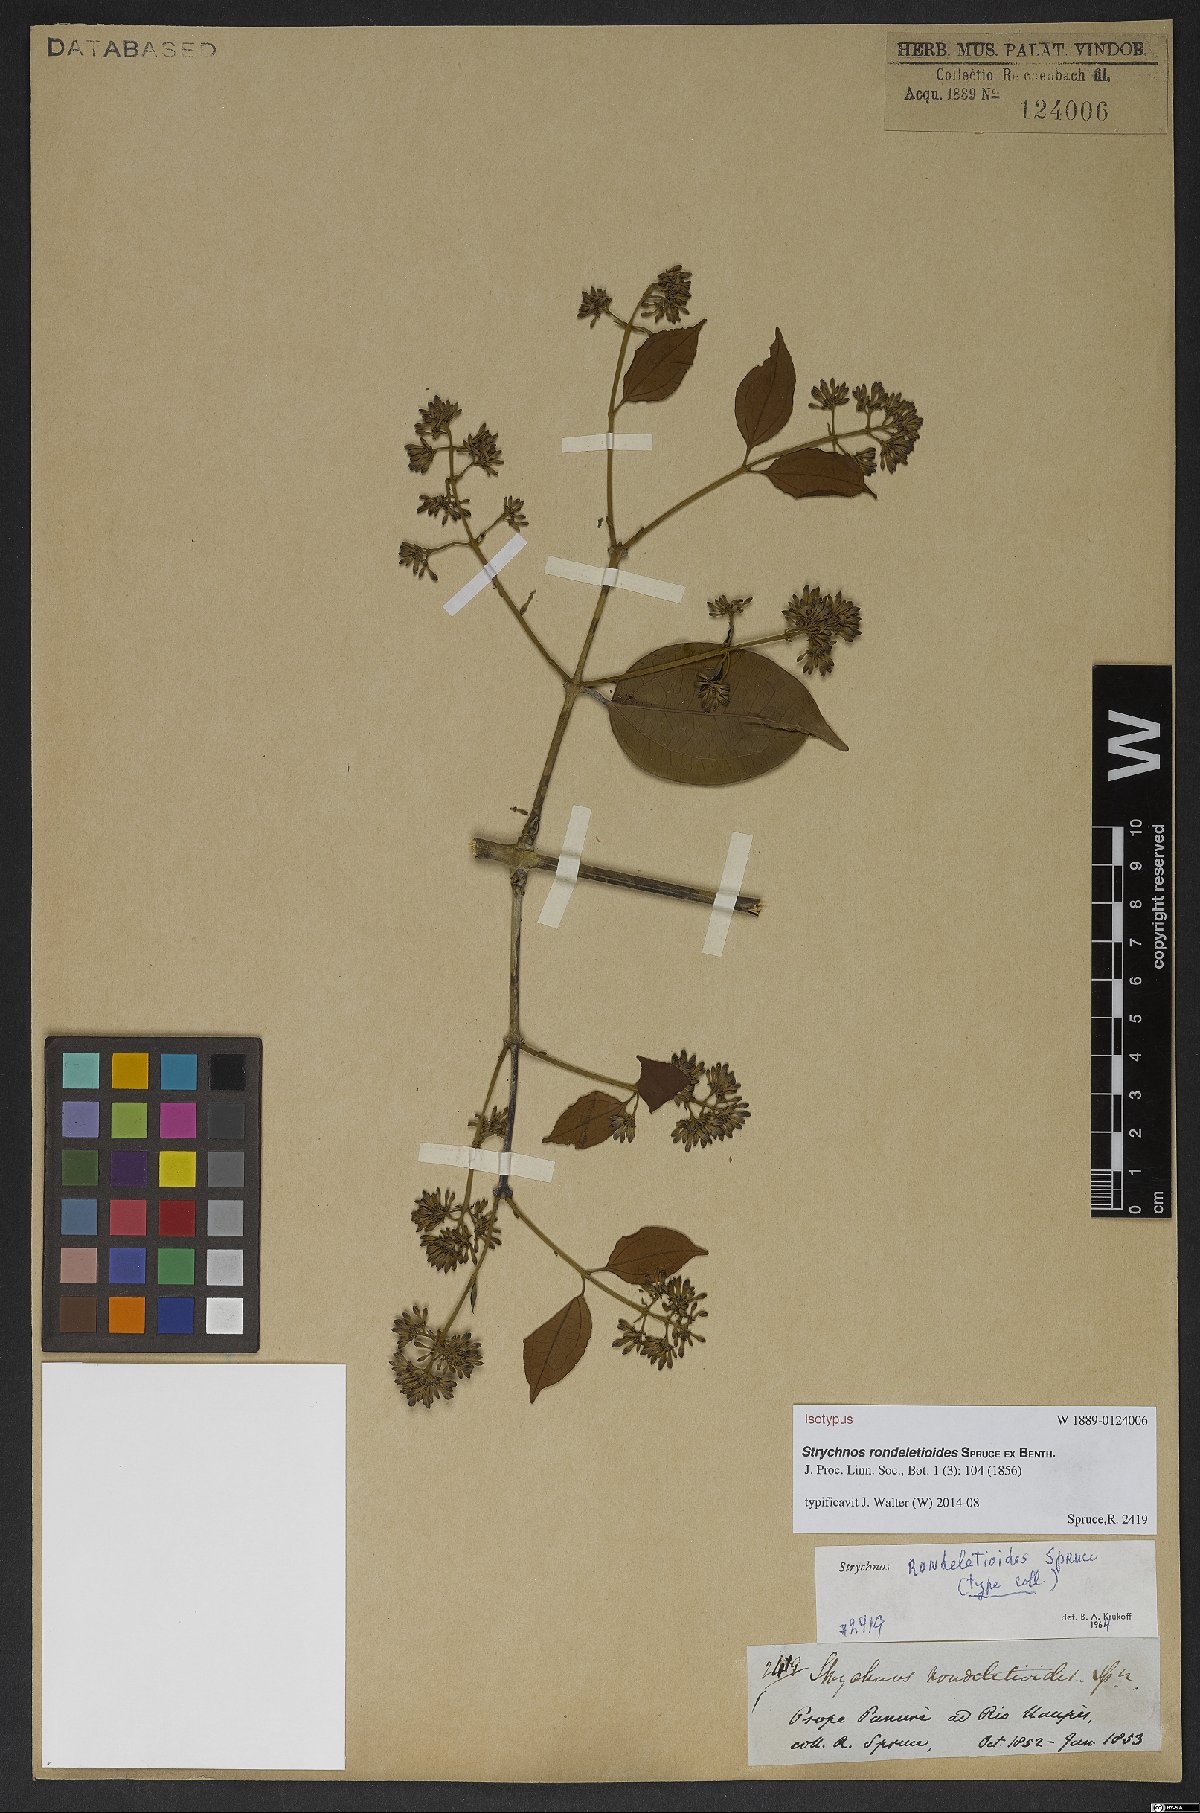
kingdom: Plantae
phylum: Tracheophyta
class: Magnoliopsida
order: Gentianales
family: Loganiaceae
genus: Strychnos
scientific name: Strychnos rondeletioides
